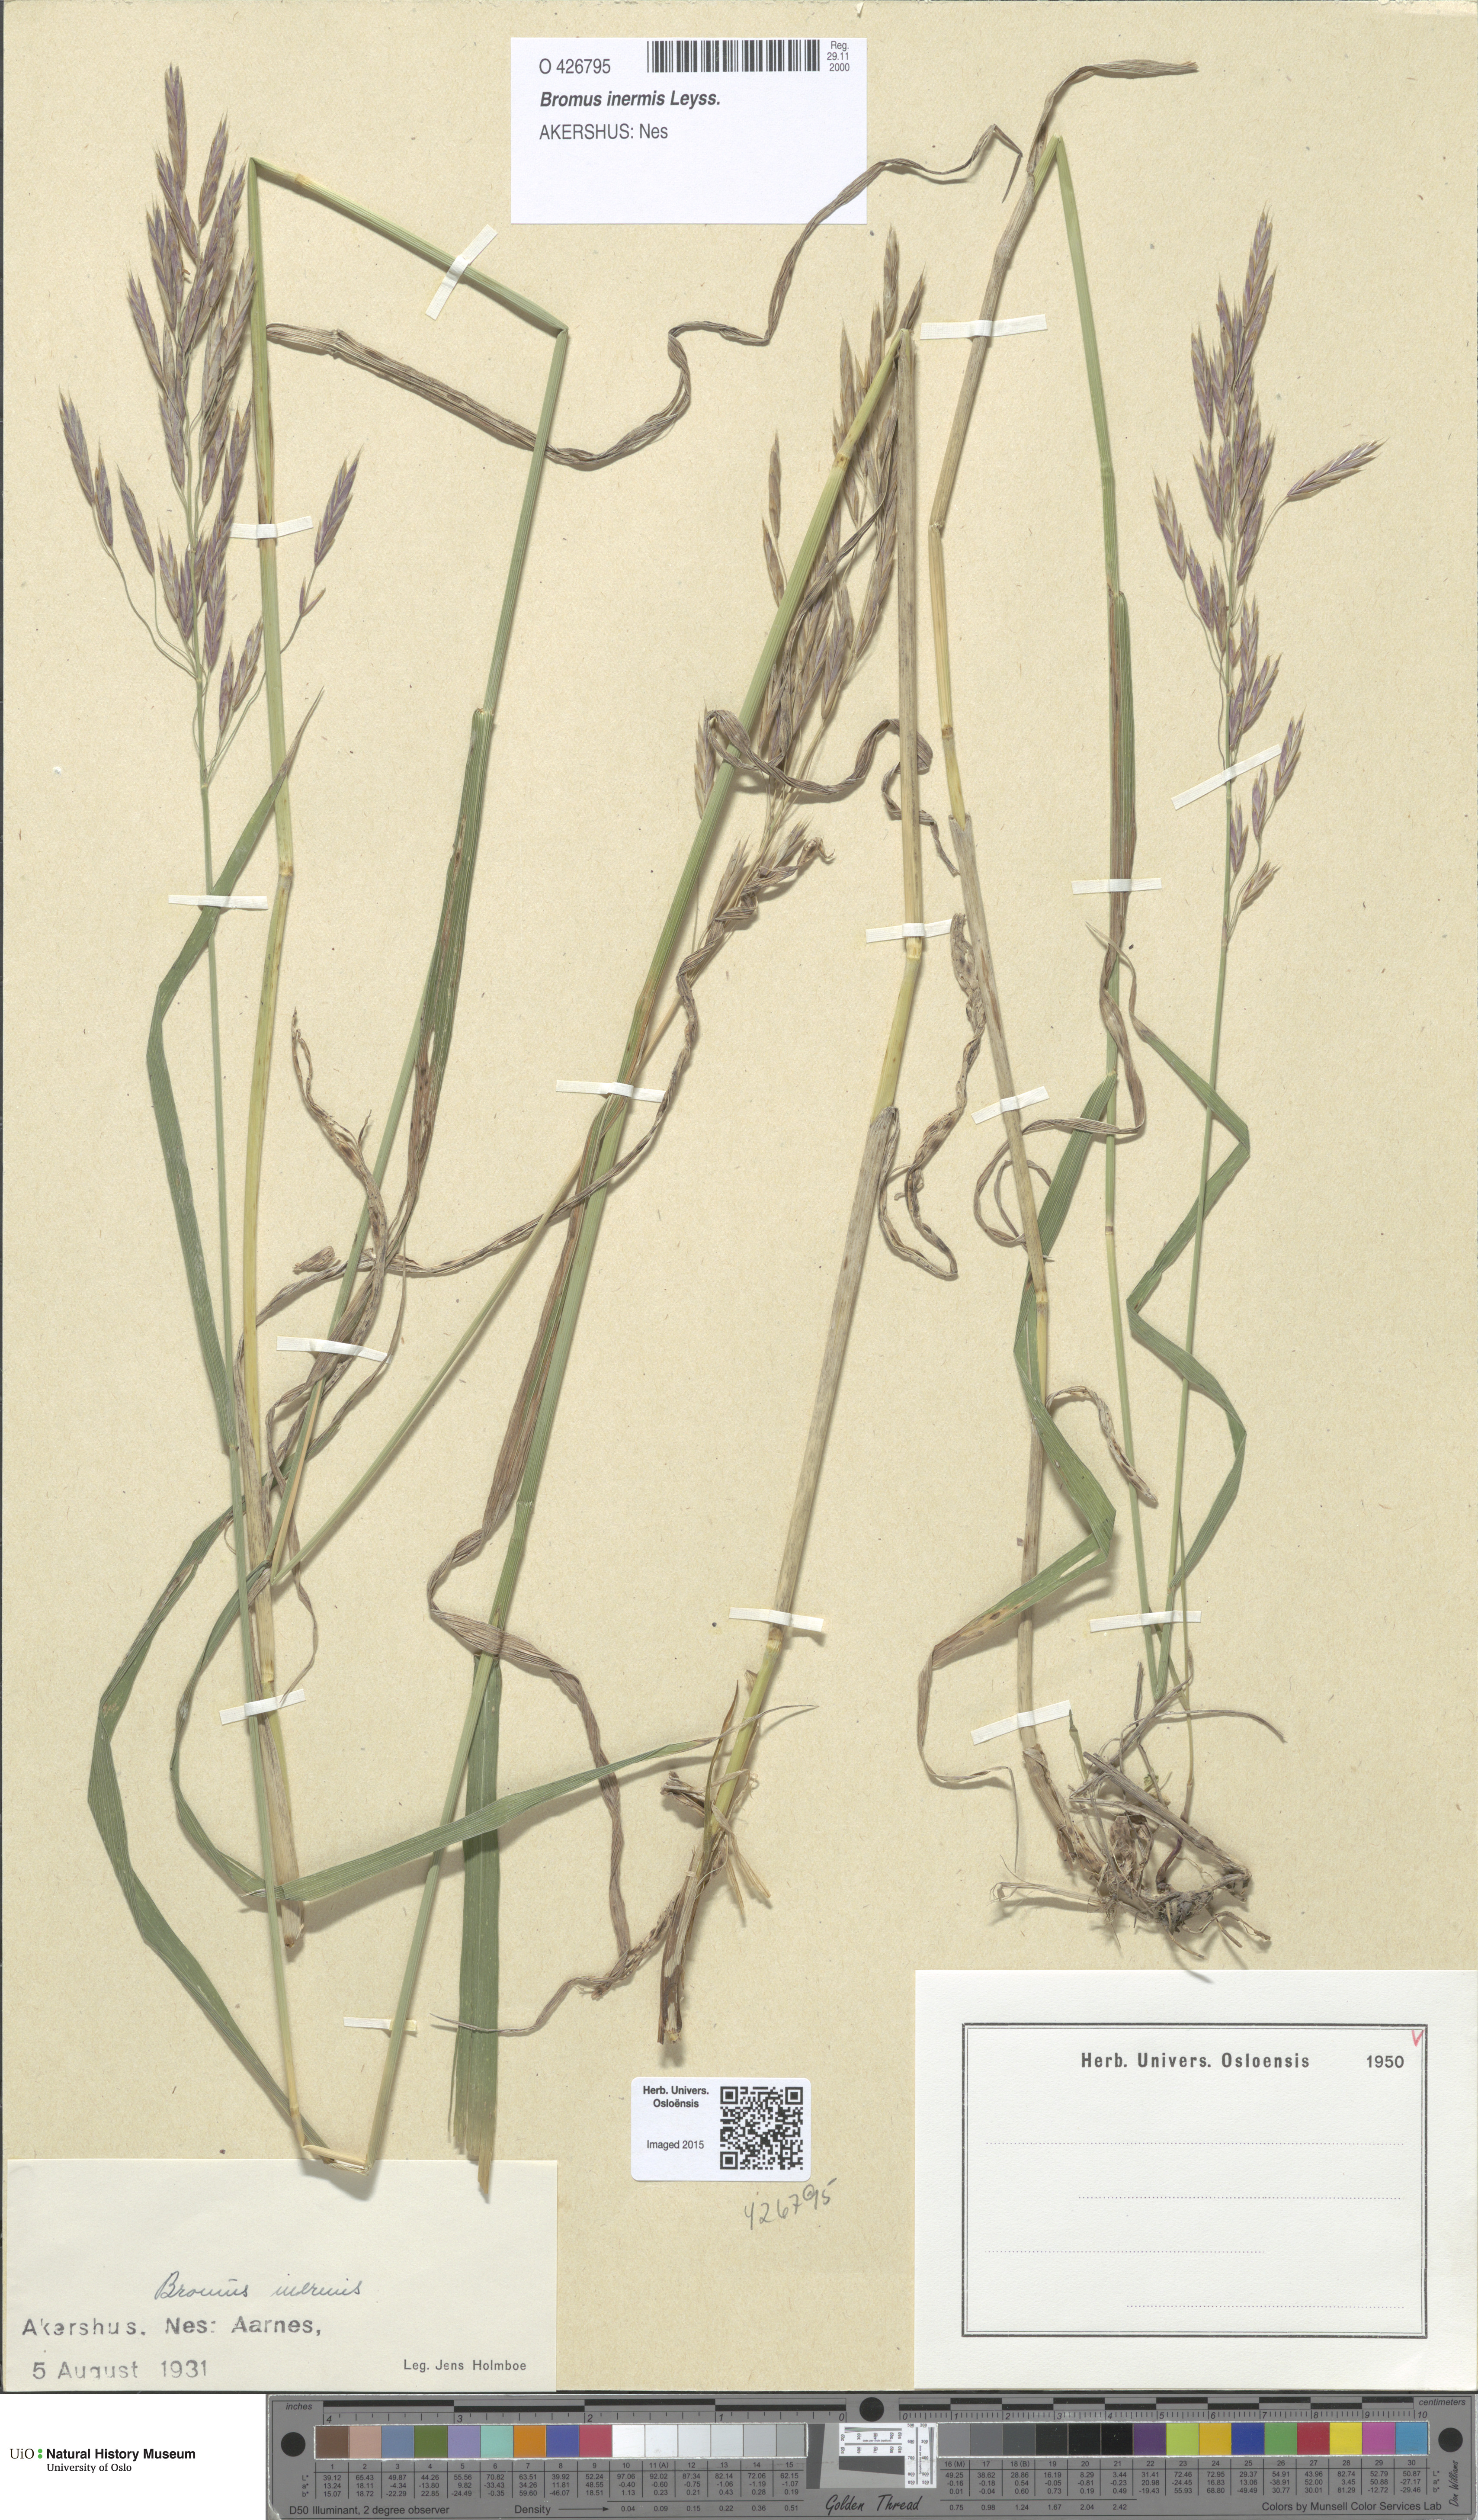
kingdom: Plantae
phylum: Tracheophyta
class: Liliopsida
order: Poales
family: Poaceae
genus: Bromus
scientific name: Bromus inermis
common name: Smooth brome
